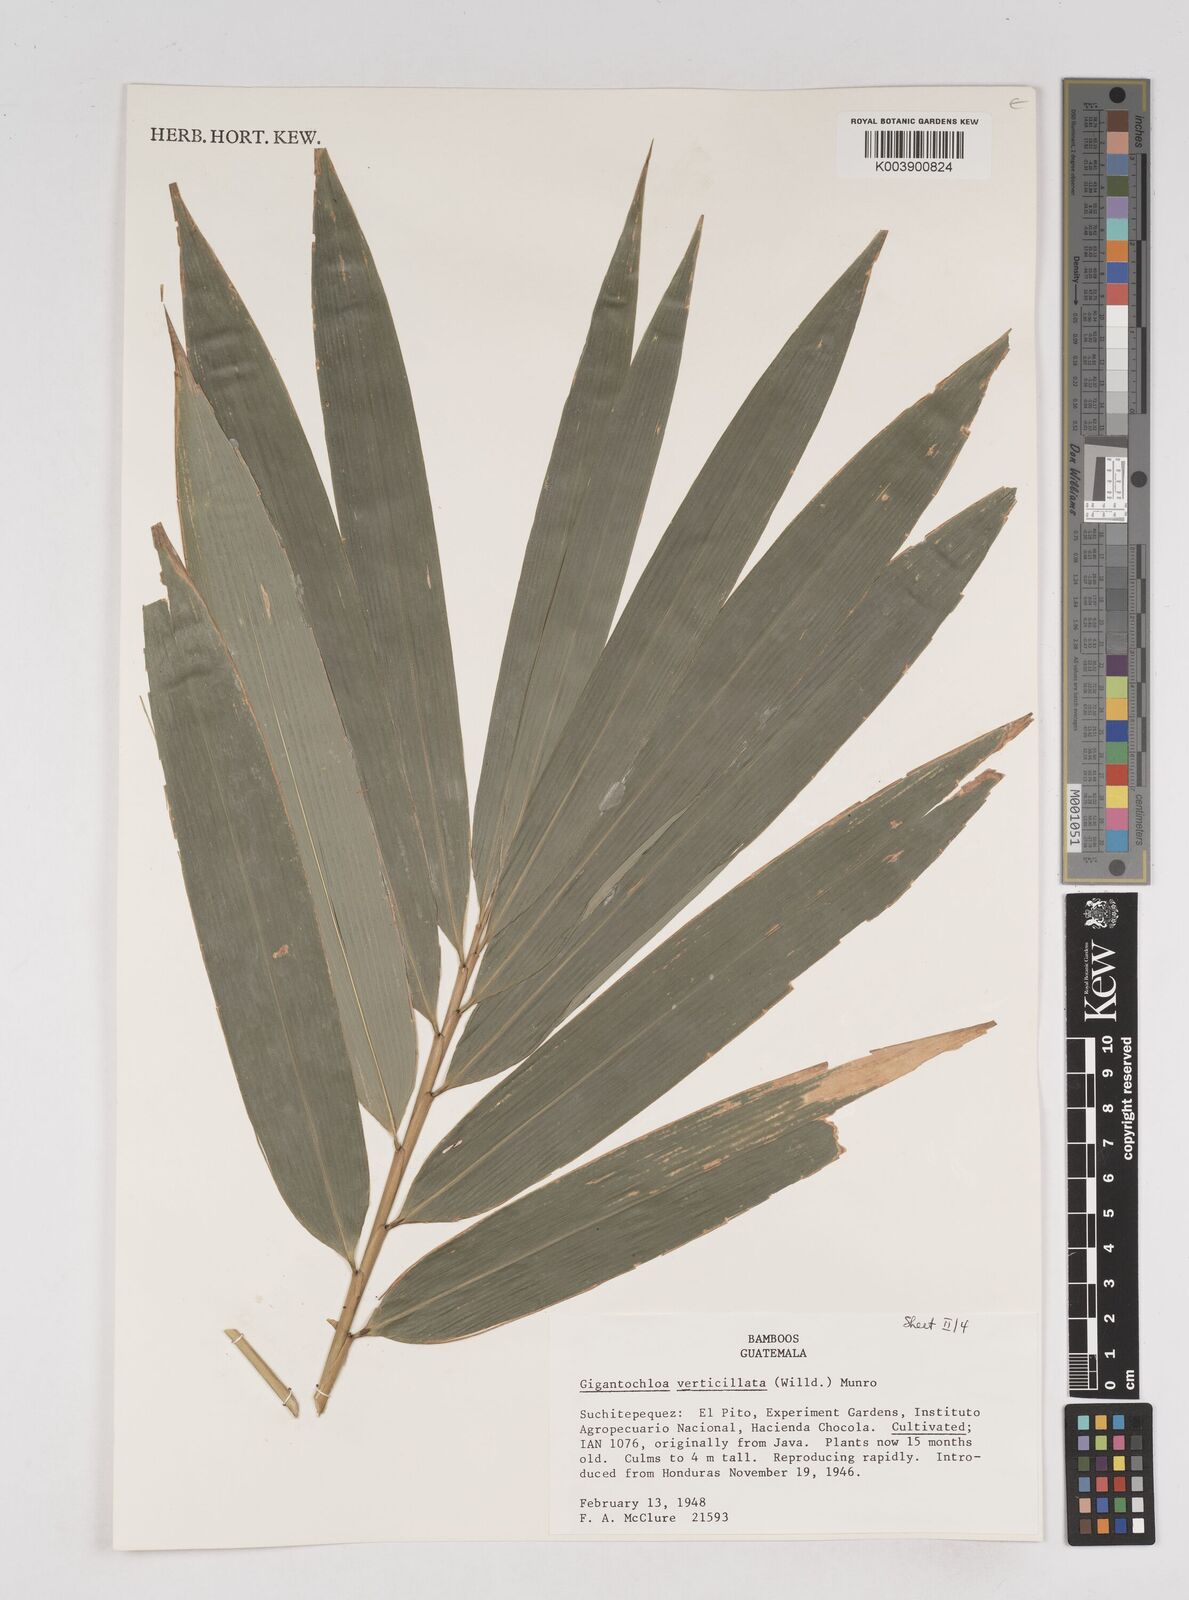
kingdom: Plantae
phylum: Tracheophyta
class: Liliopsida
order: Poales
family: Poaceae
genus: Gigantochloa
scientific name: Gigantochloa verticillata
